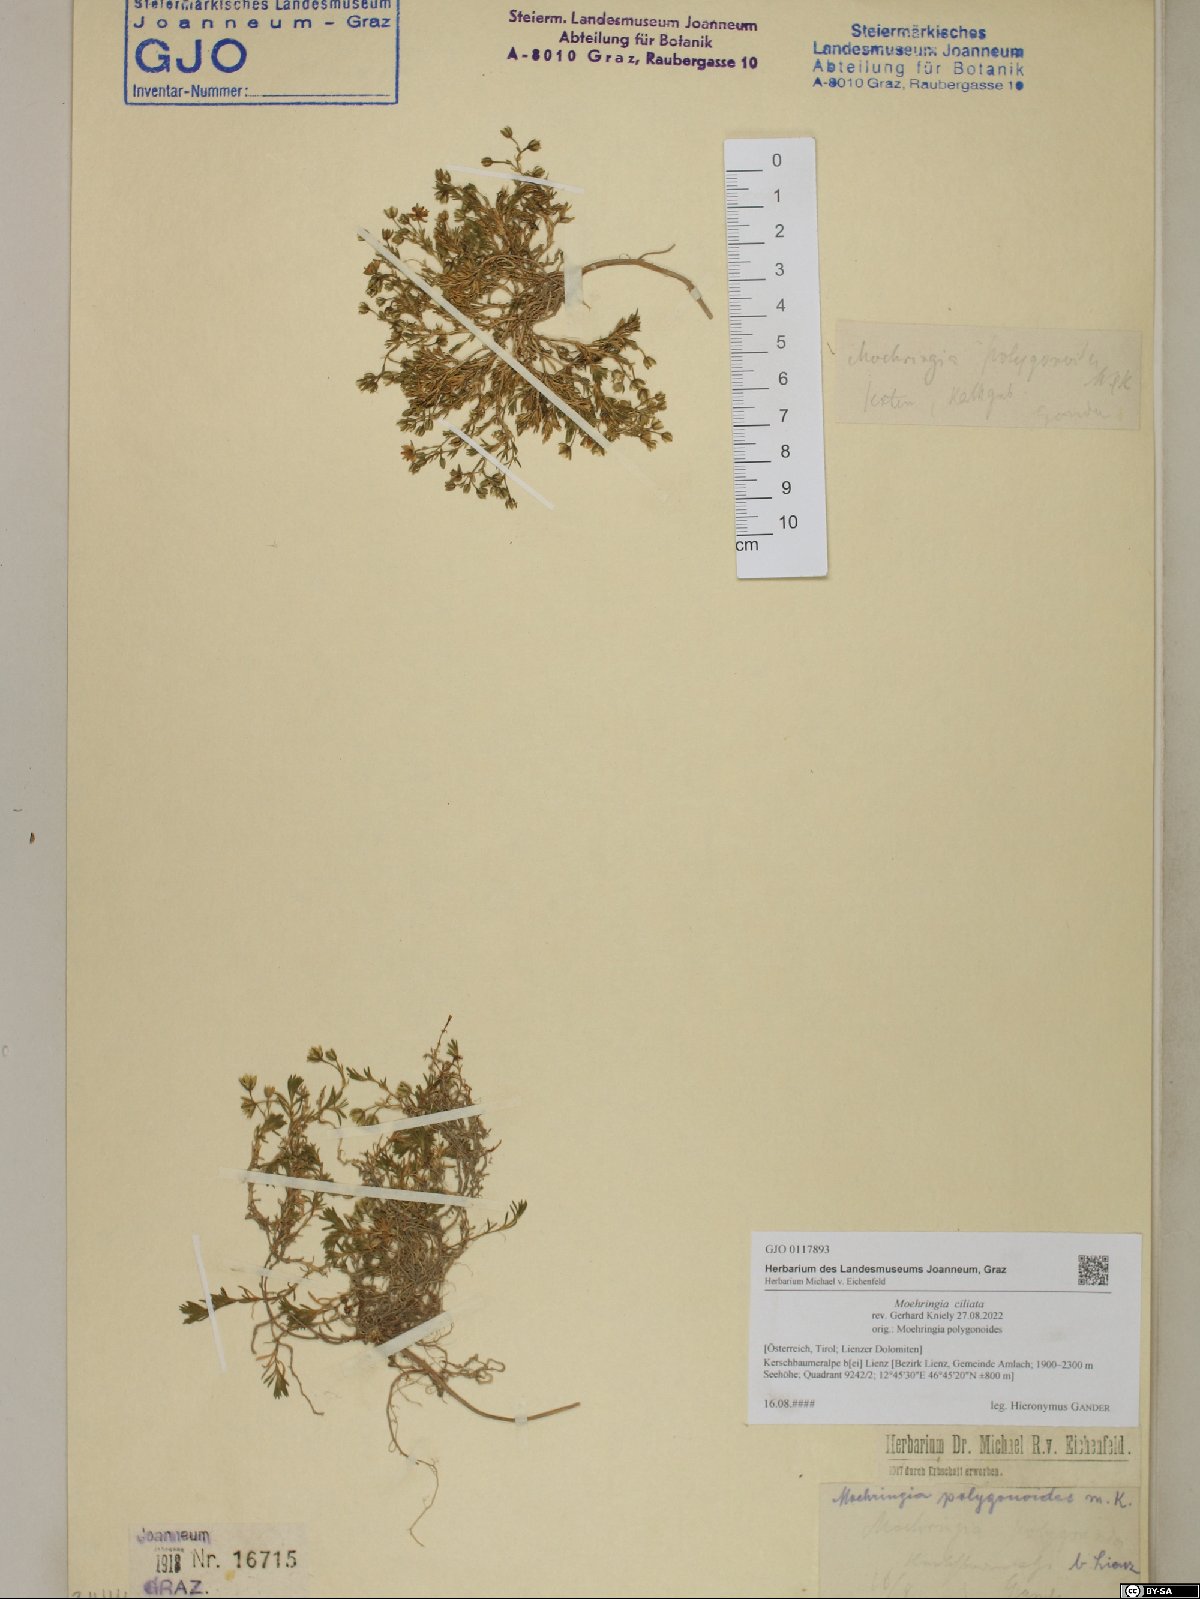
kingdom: Plantae
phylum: Tracheophyta
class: Magnoliopsida
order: Caryophyllales
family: Caryophyllaceae
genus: Moehringia
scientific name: Moehringia ciliata
